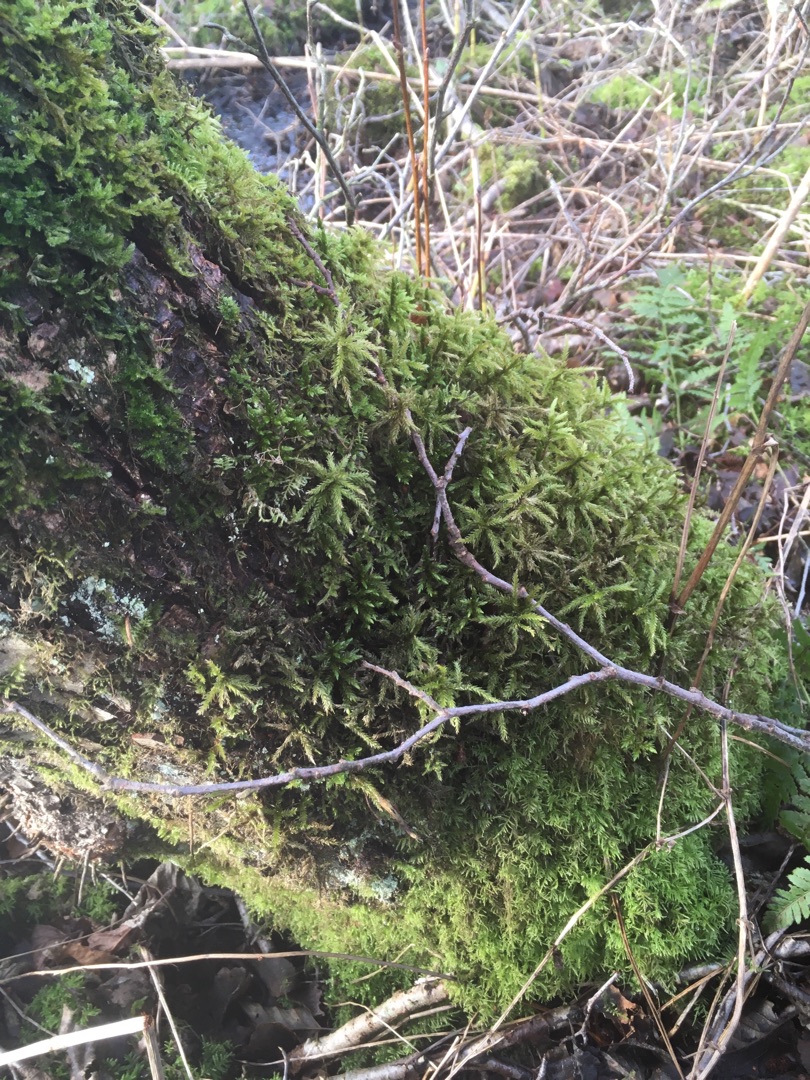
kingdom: Plantae
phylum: Bryophyta
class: Bryopsida
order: Hypnales
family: Climaciaceae
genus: Climacium
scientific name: Climacium dendroides
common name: Stor engkost
